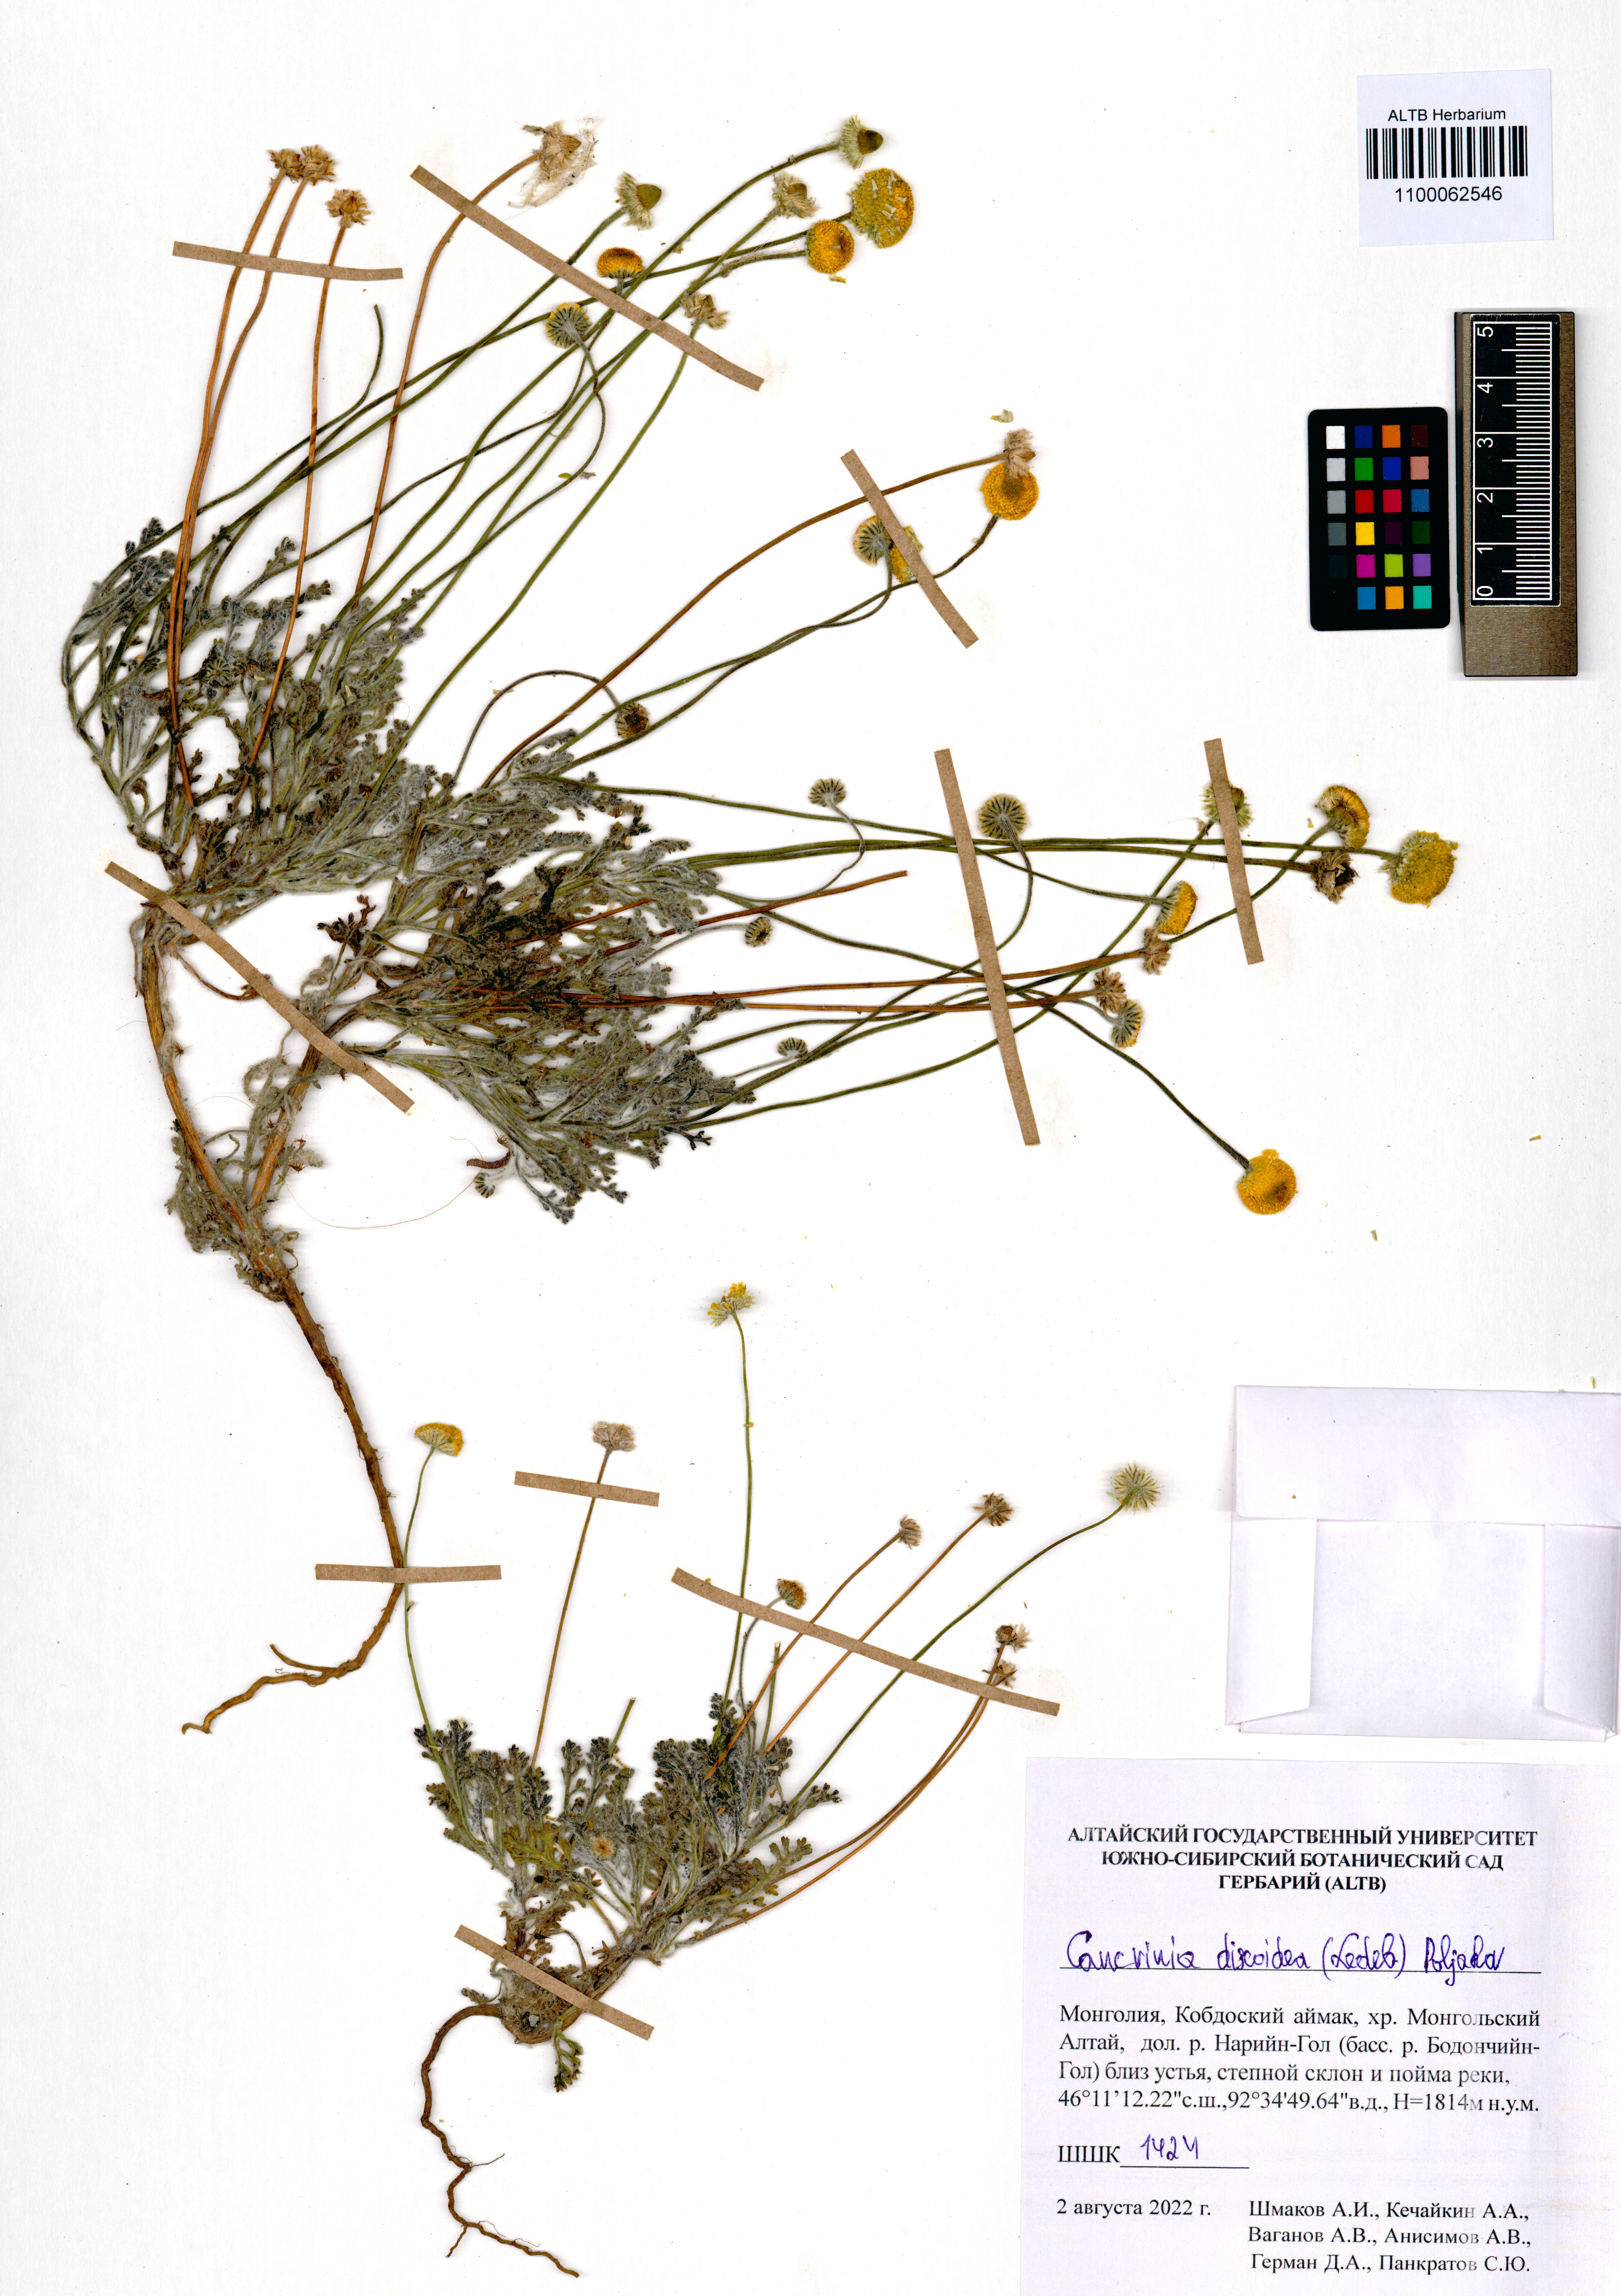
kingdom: Plantae
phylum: Tracheophyta
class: Magnoliopsida
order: Asterales
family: Asteraceae
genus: Cancrinia
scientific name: Cancrinia discoidea
